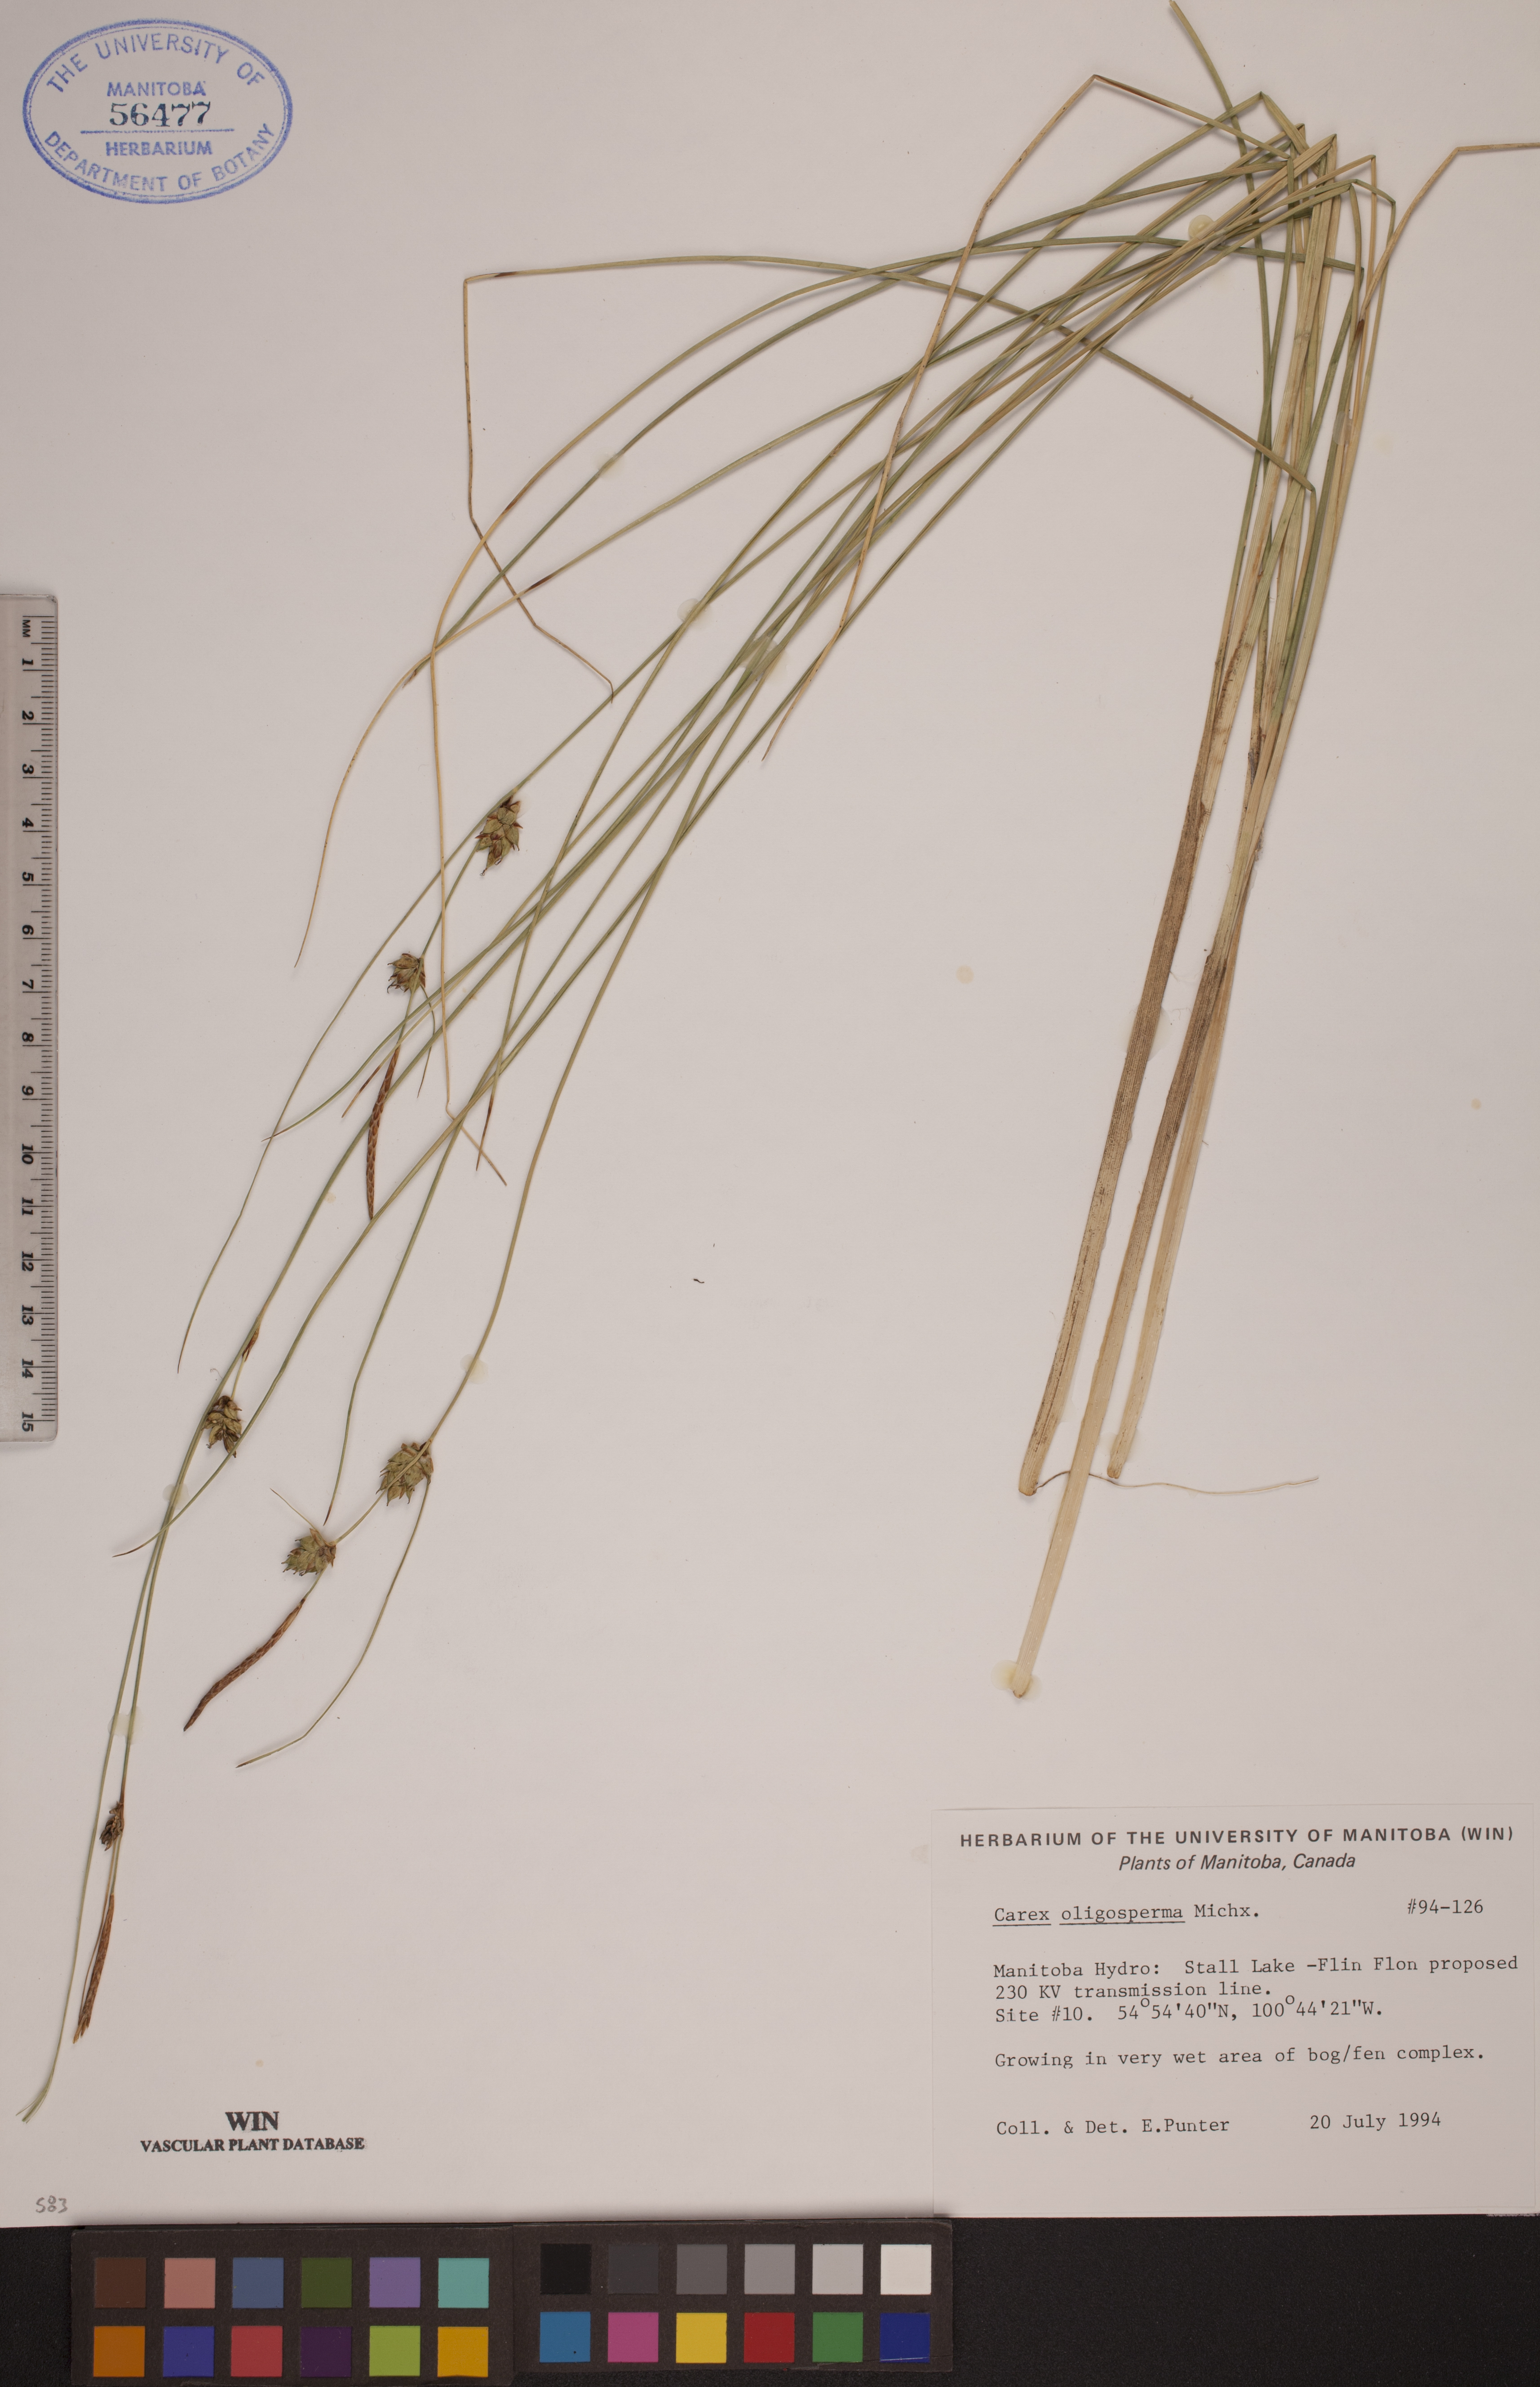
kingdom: Plantae
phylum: Tracheophyta
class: Liliopsida
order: Poales
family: Cyperaceae
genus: Carex
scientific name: Carex oligosperma
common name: Few-seed sedge
